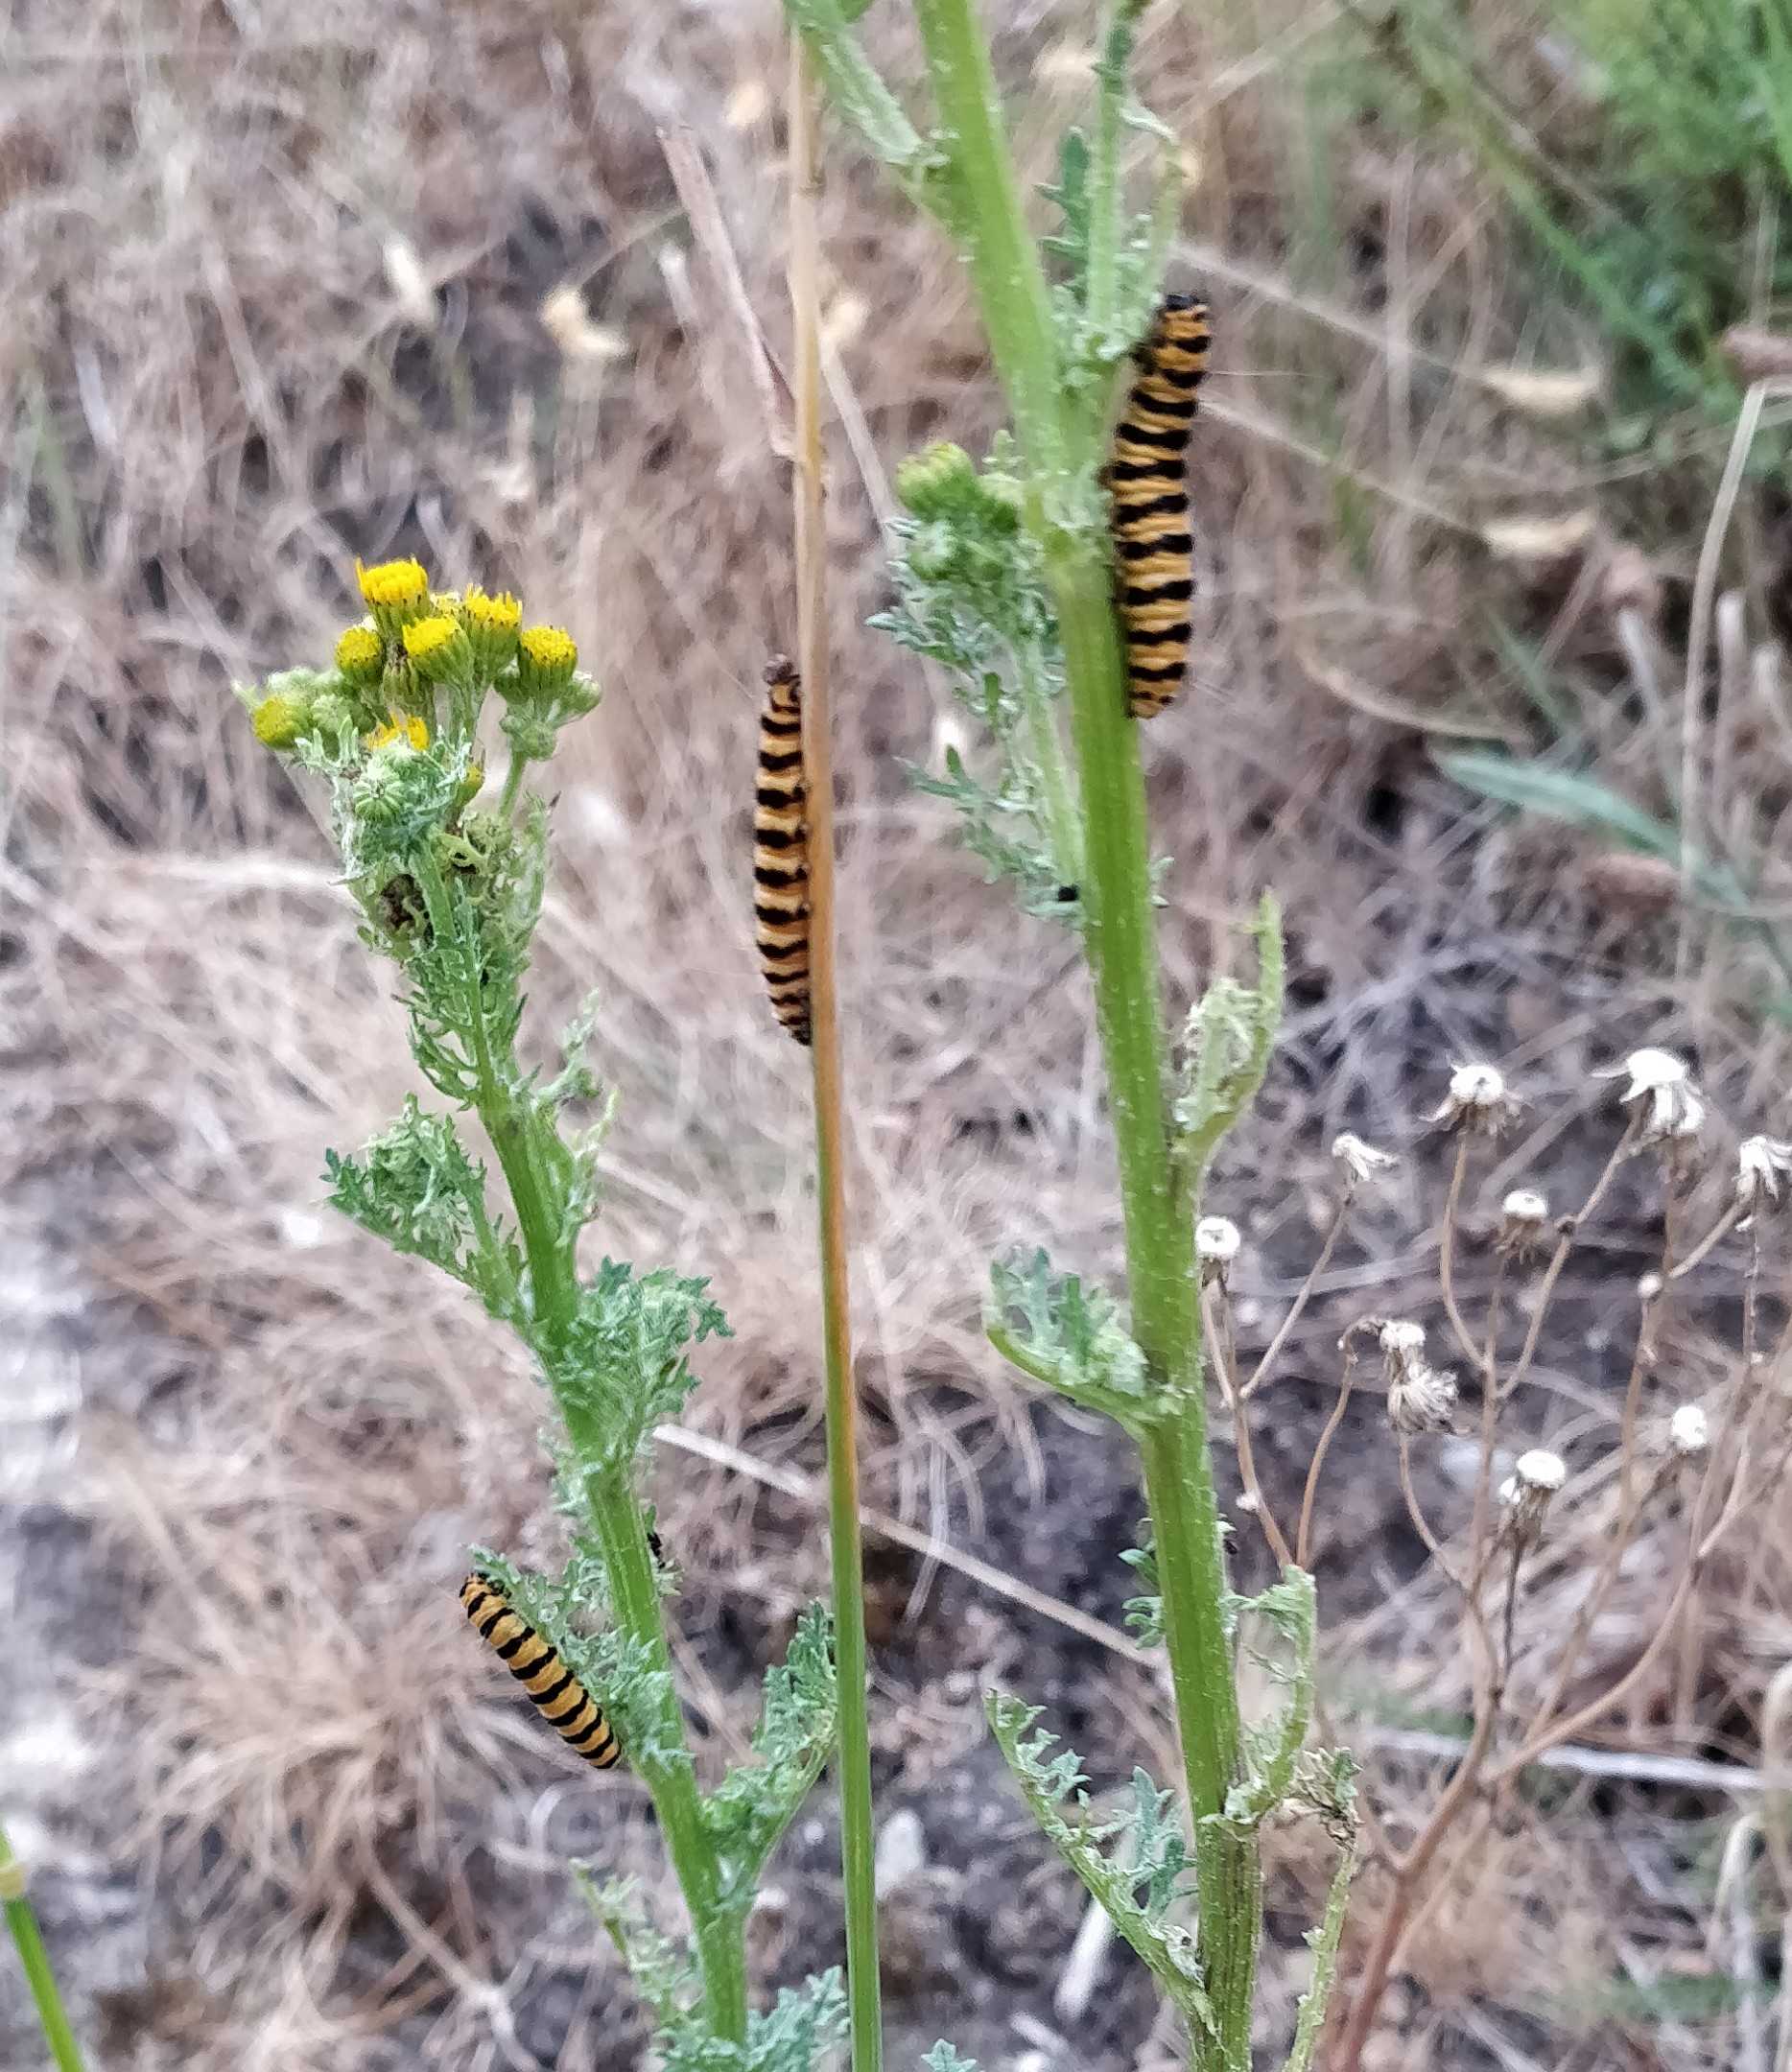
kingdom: Animalia
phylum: Arthropoda
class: Insecta
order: Lepidoptera
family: Erebidae
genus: Tyria
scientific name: Tyria jacobaeae
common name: Blodplet
